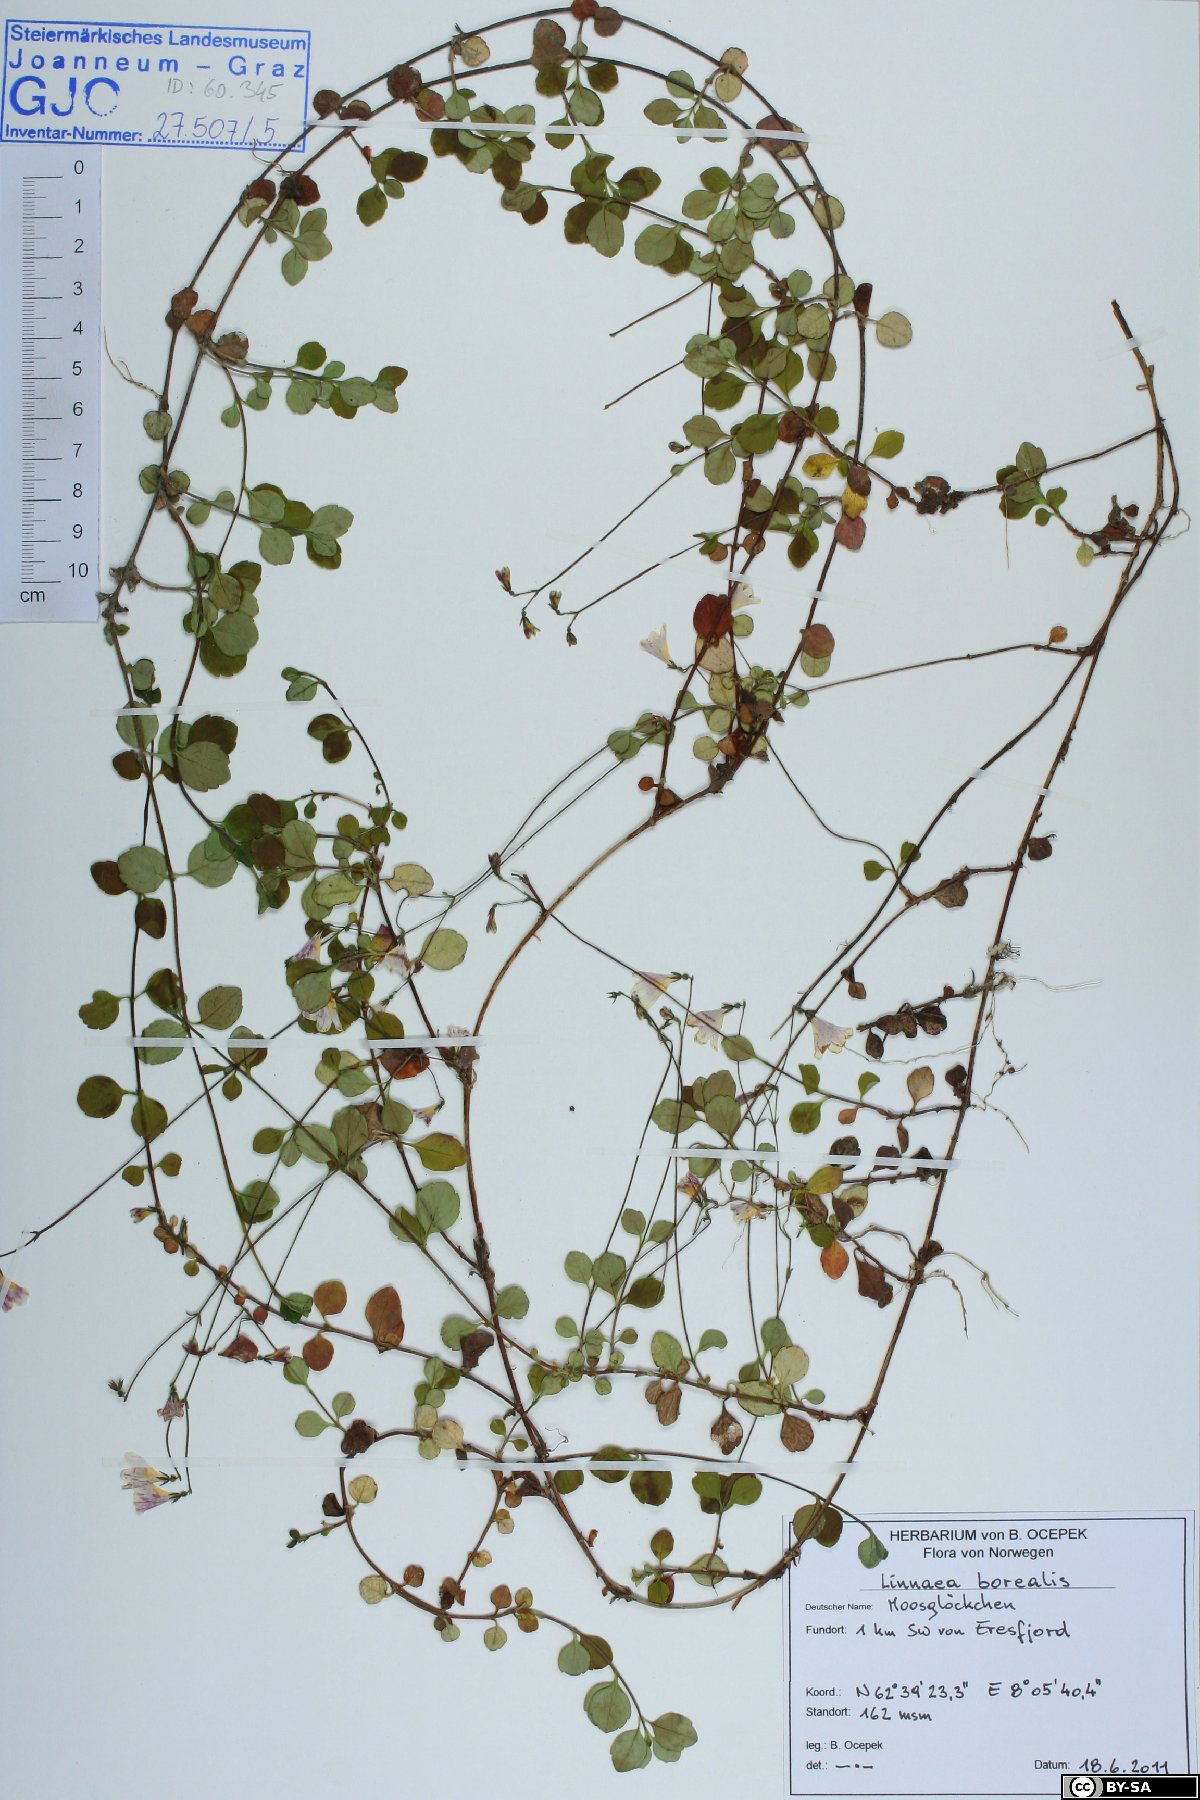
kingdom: Plantae
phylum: Tracheophyta
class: Magnoliopsida
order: Dipsacales
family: Caprifoliaceae
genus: Linnaea
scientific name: Linnaea borealis
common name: Twinflower
